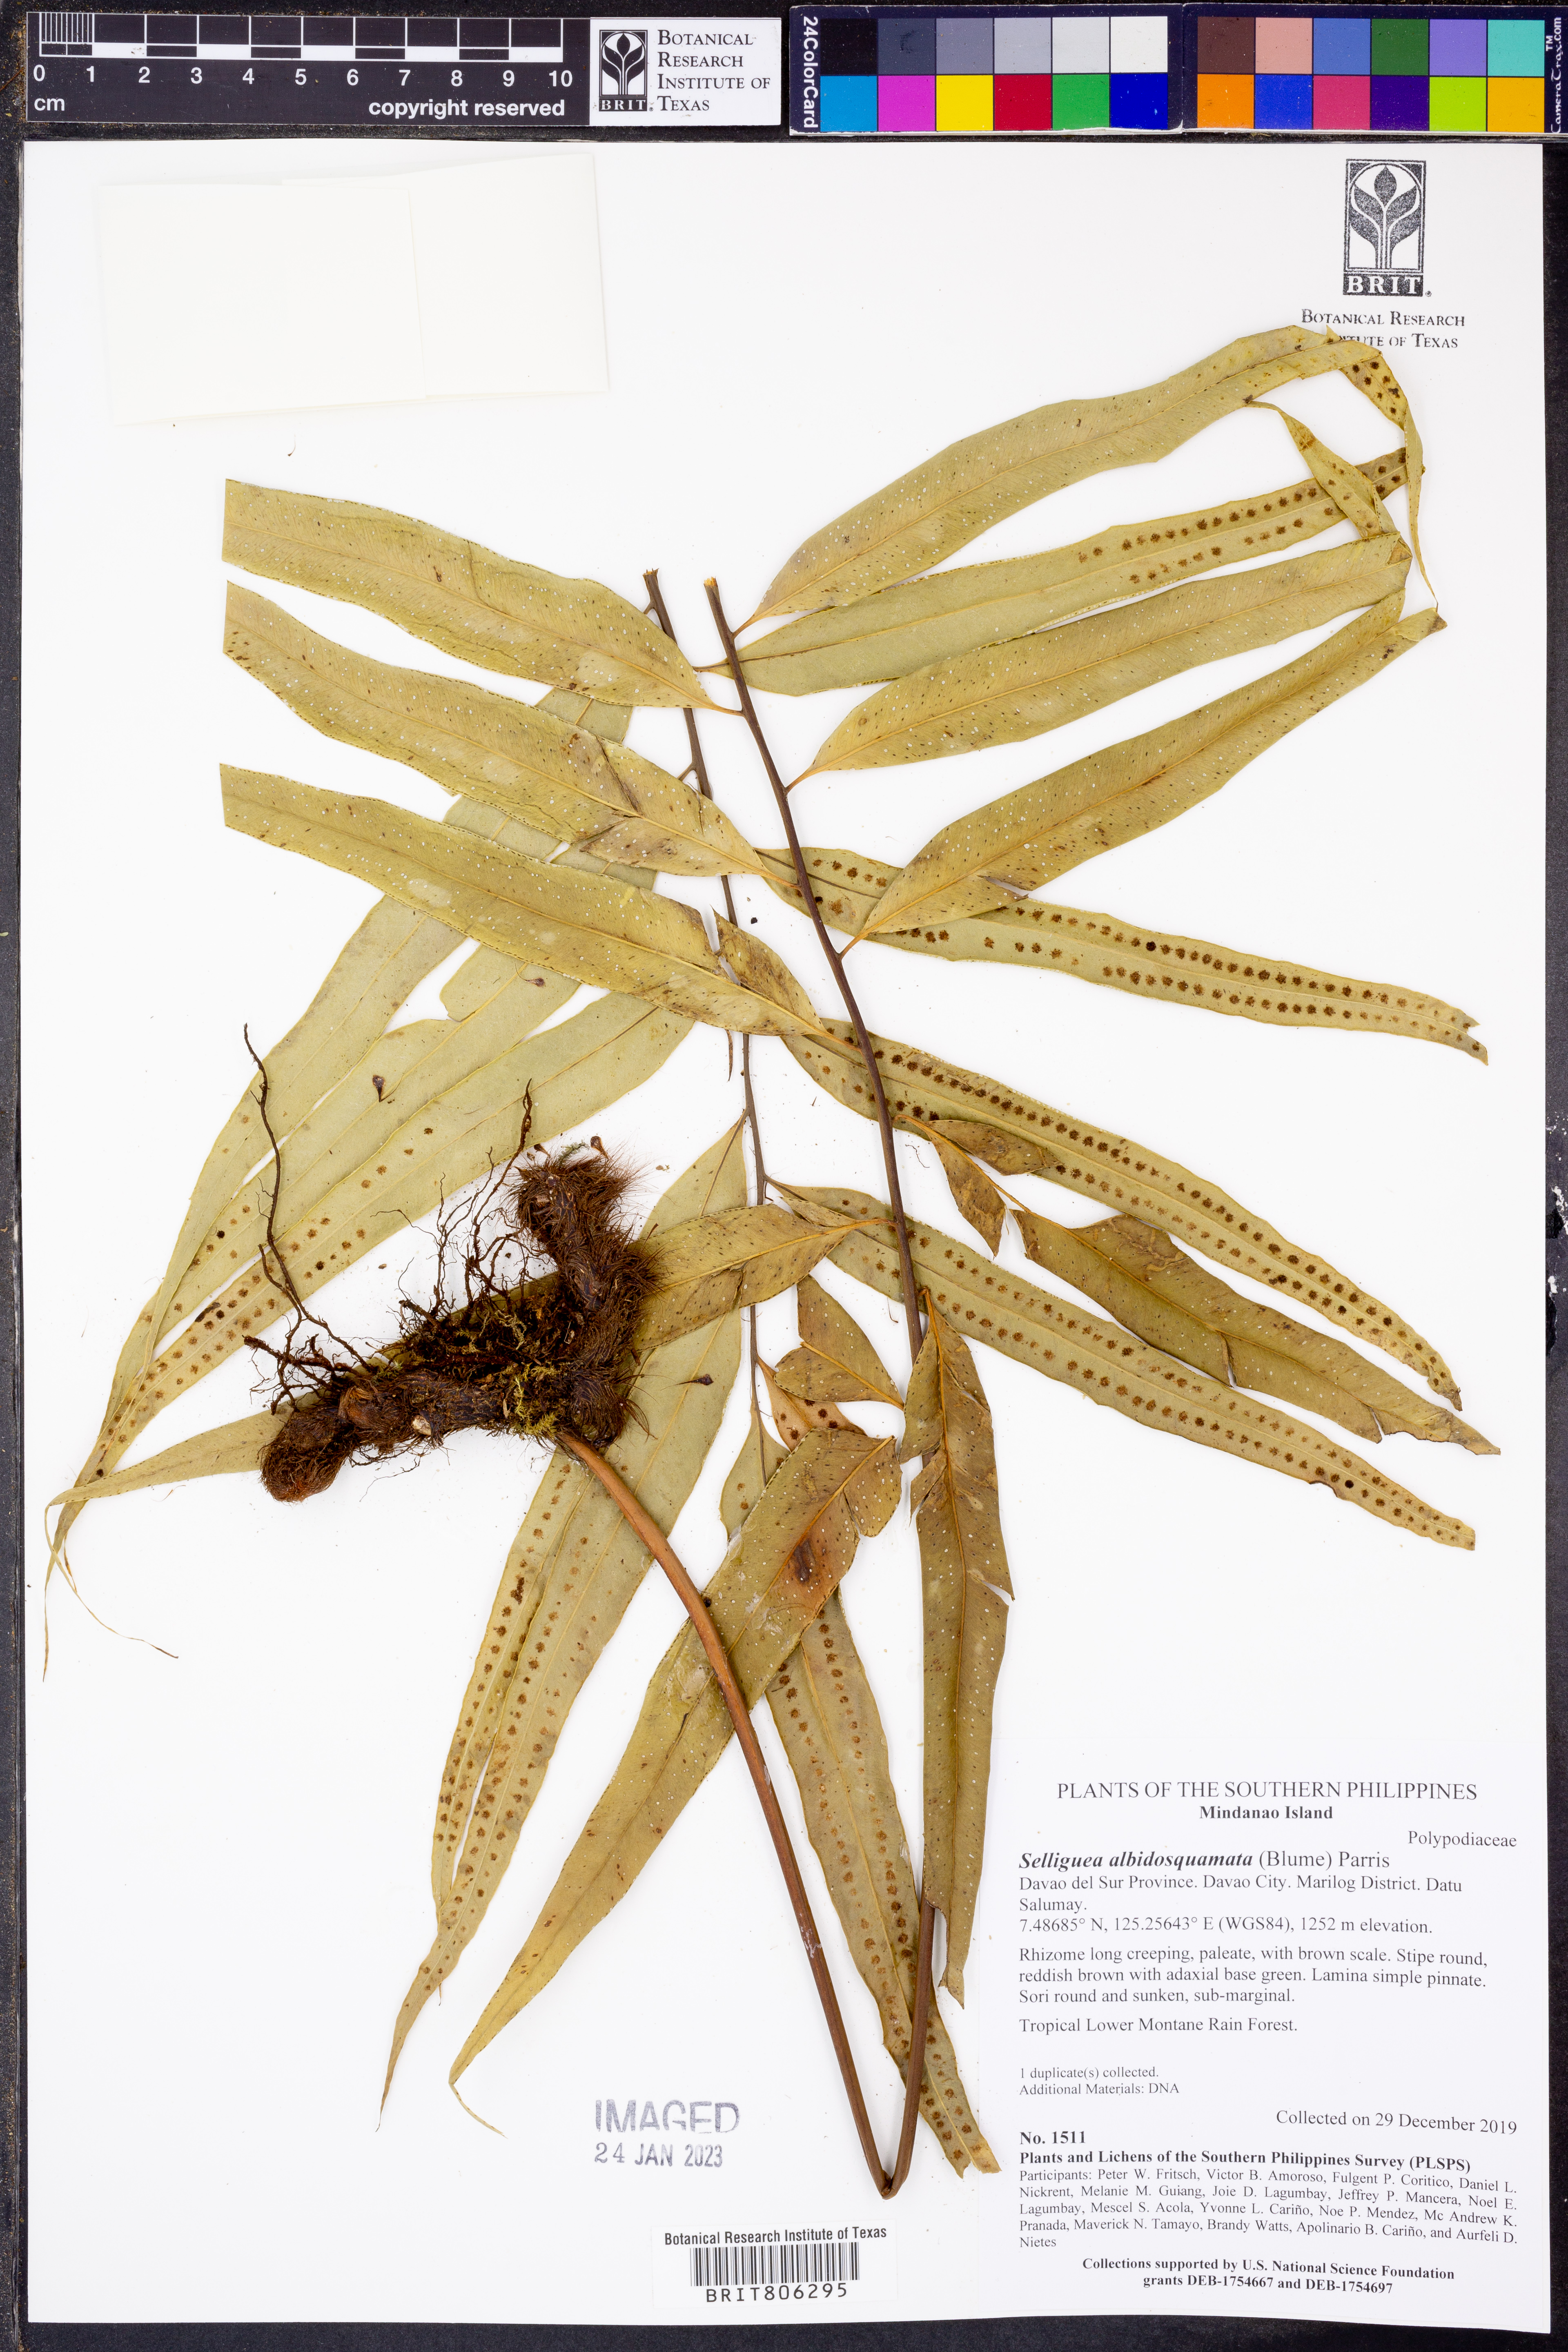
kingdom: Plantae
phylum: Tracheophyta
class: Polypodiopsida
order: Polypodiales
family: Polypodiaceae
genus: Selliguea
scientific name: Selliguea albidosquamata
